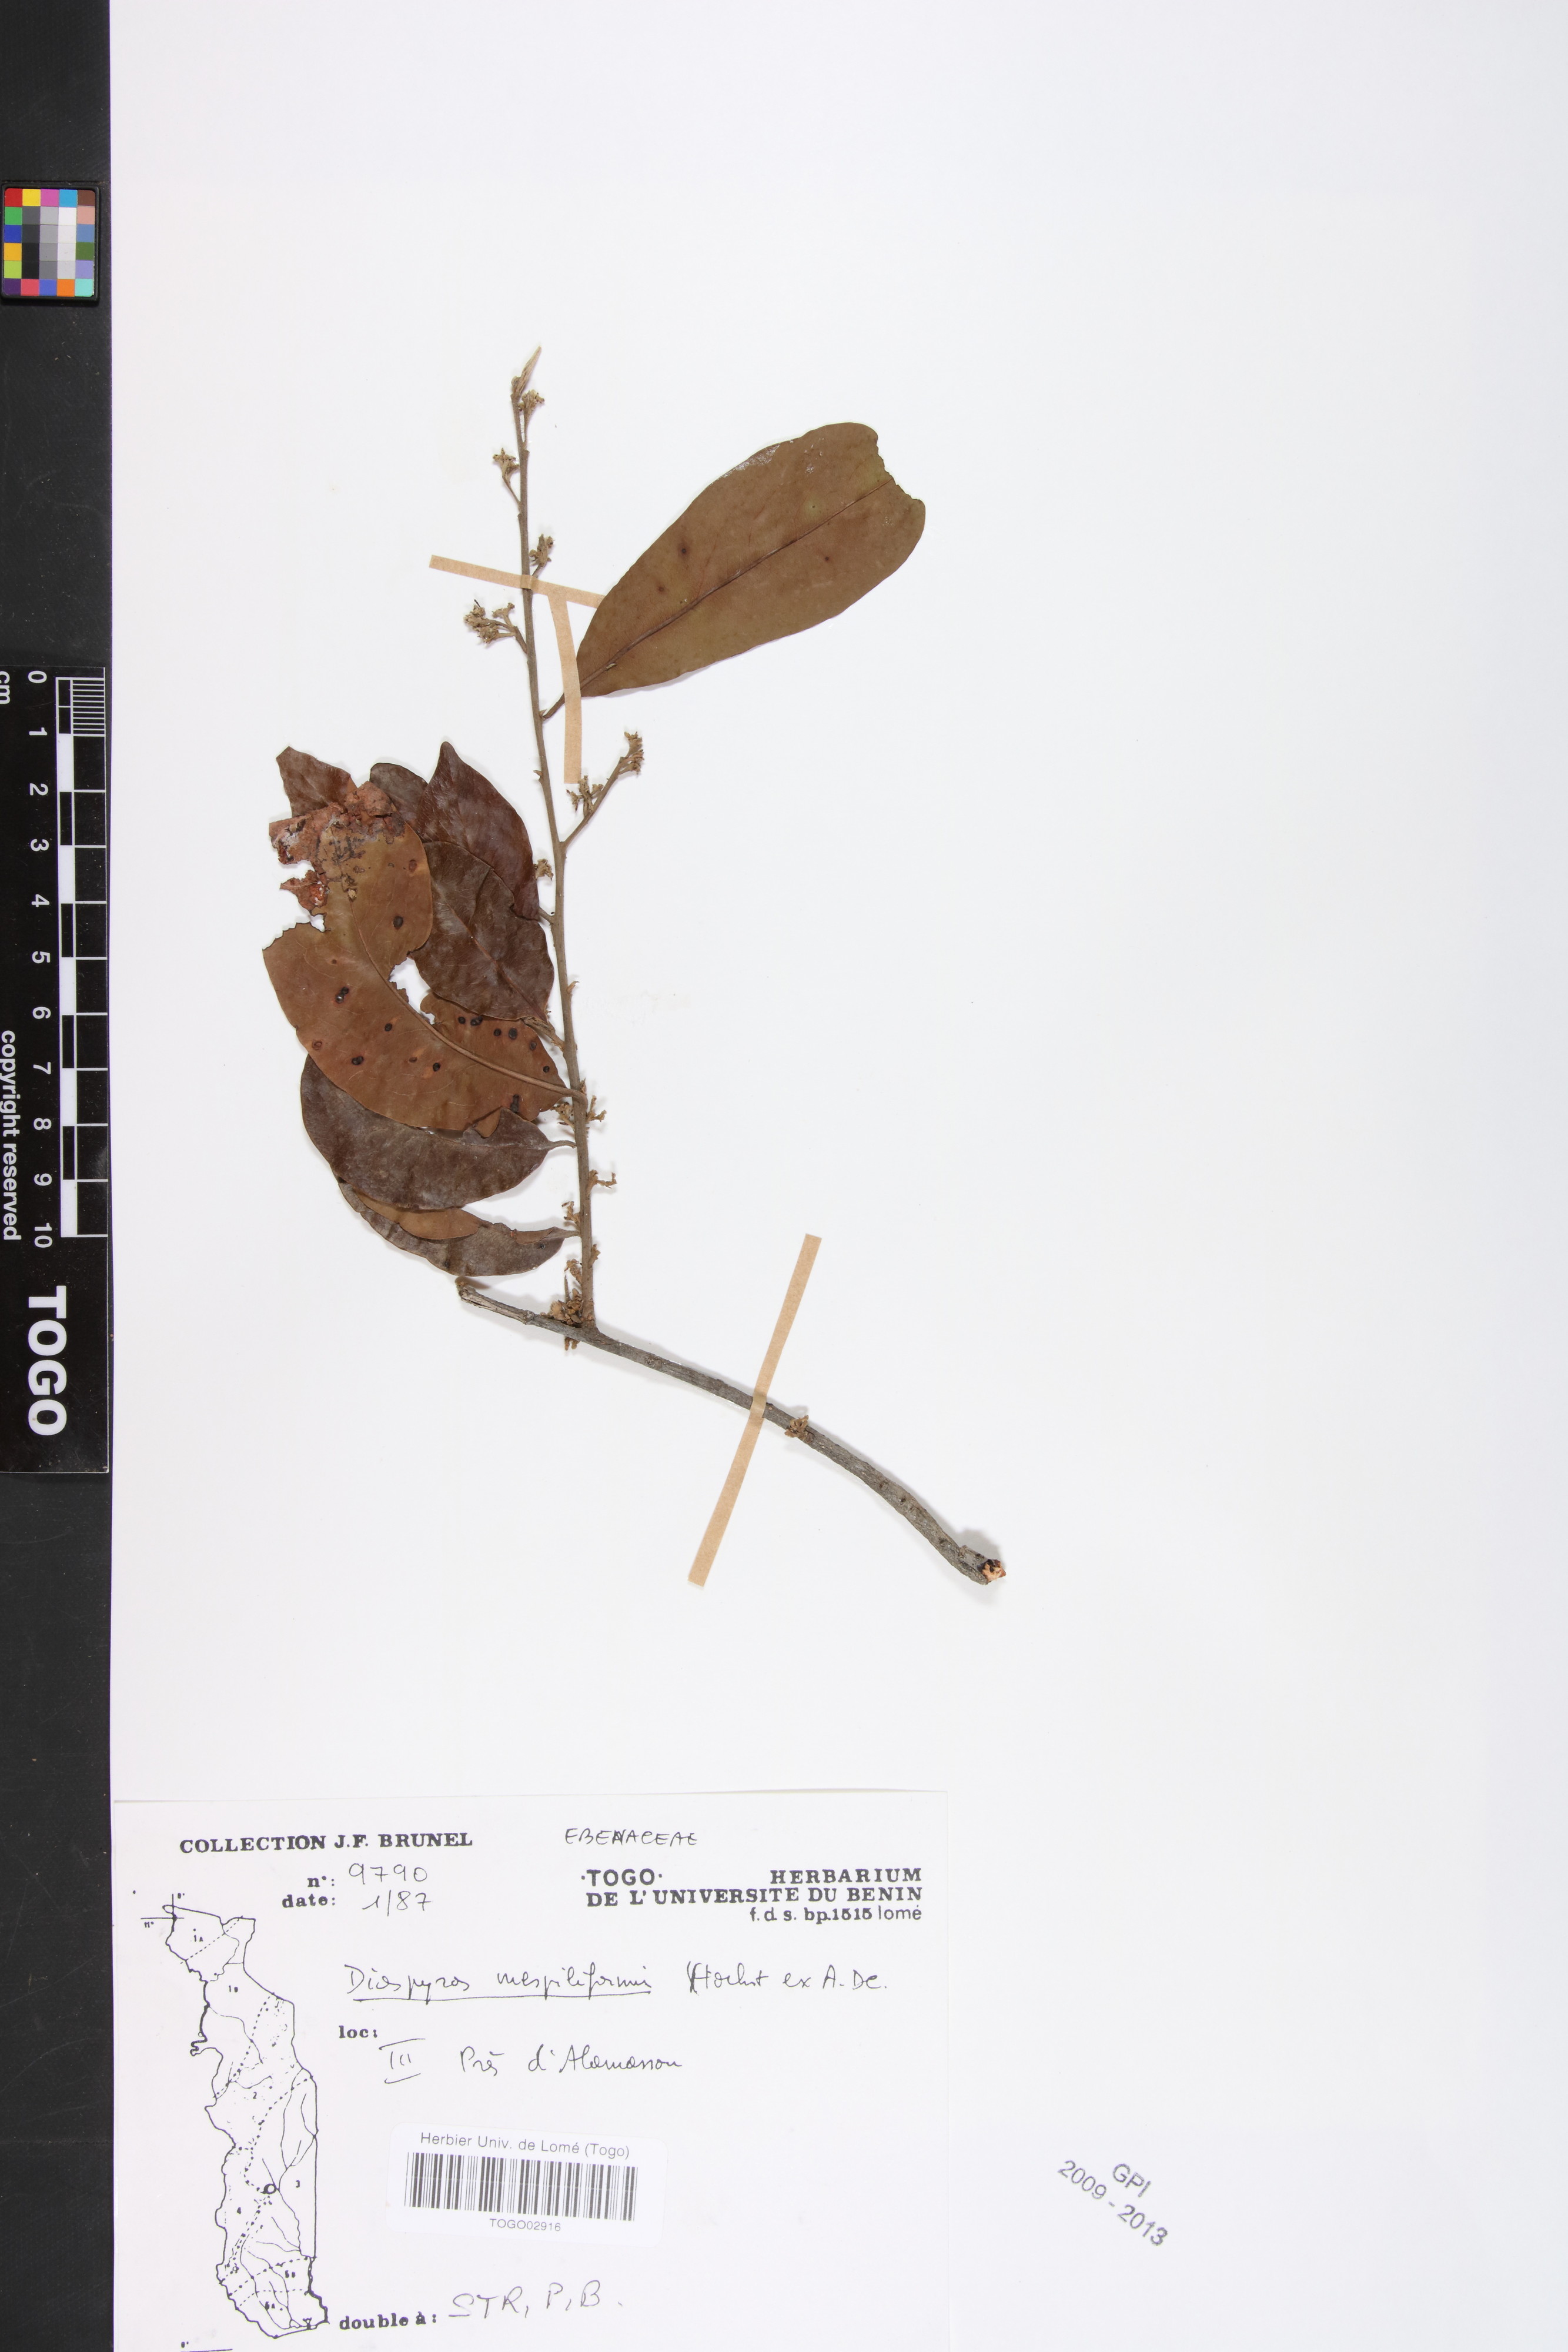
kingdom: Plantae
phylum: Tracheophyta
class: Magnoliopsida
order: Ericales
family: Ebenaceae
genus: Diospyros
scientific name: Diospyros mespiliformis
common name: Ebony diospyros
